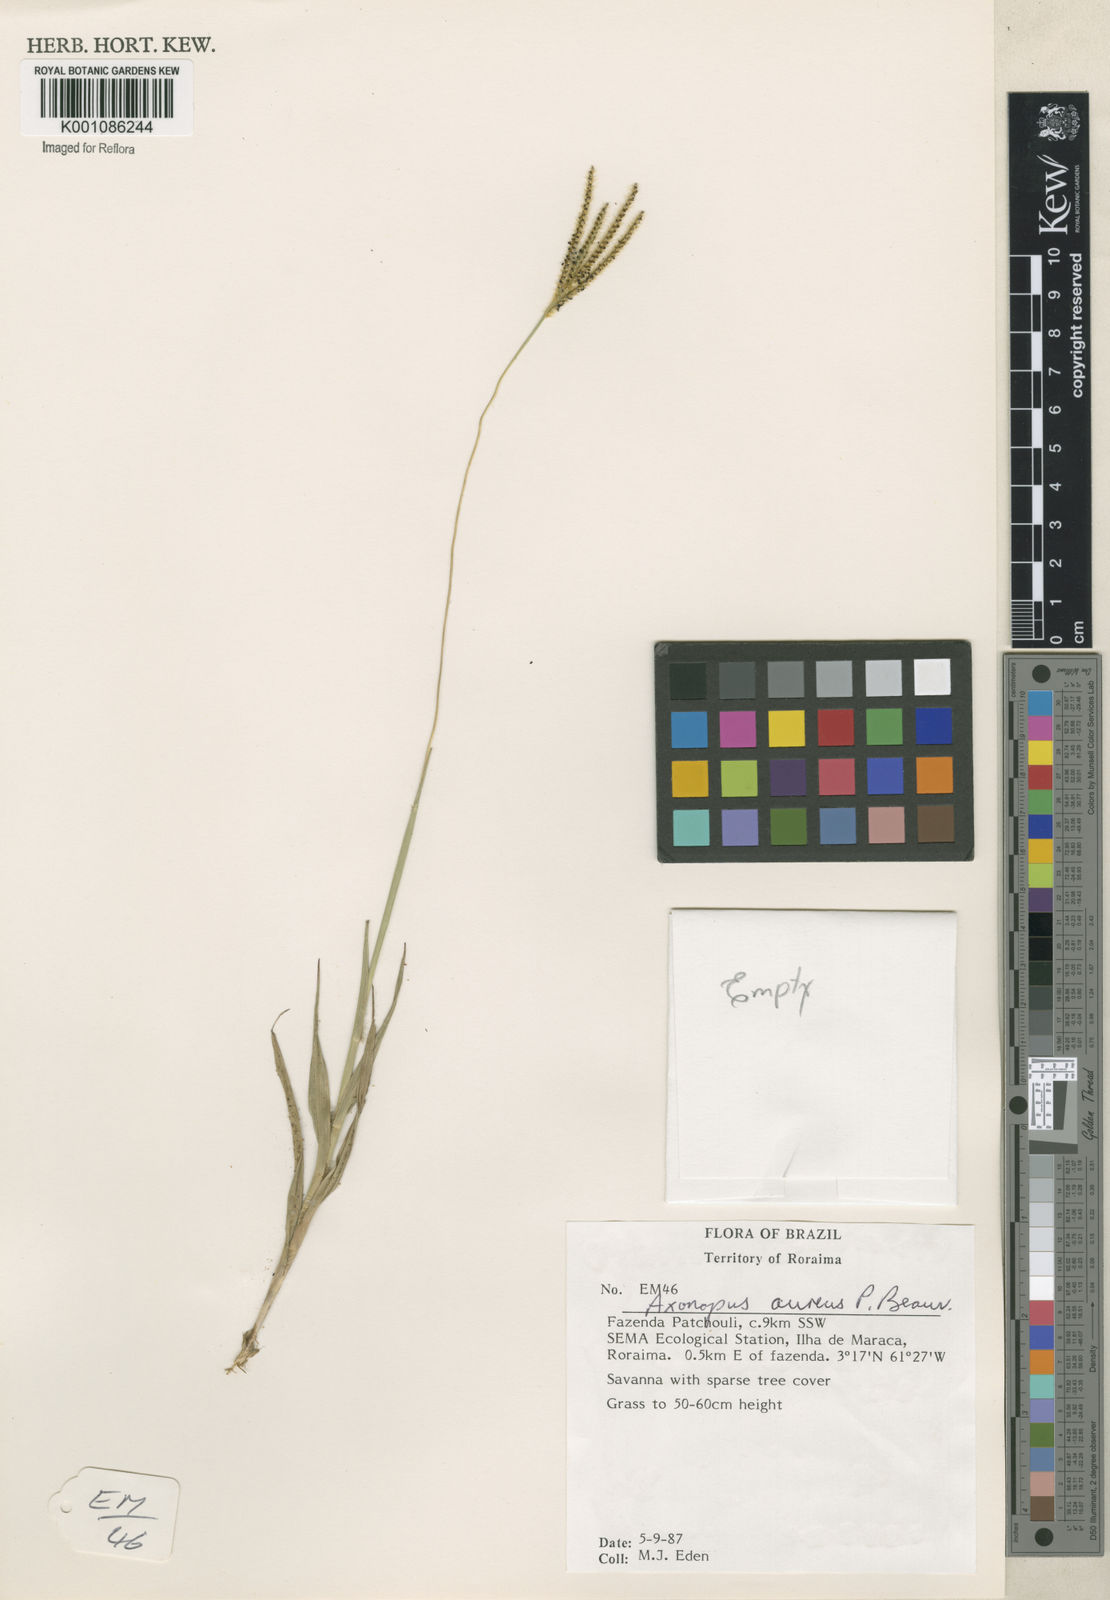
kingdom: Plantae
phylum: Tracheophyta
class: Liliopsida
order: Poales
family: Poaceae
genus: Axonopus
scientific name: Axonopus aureus
